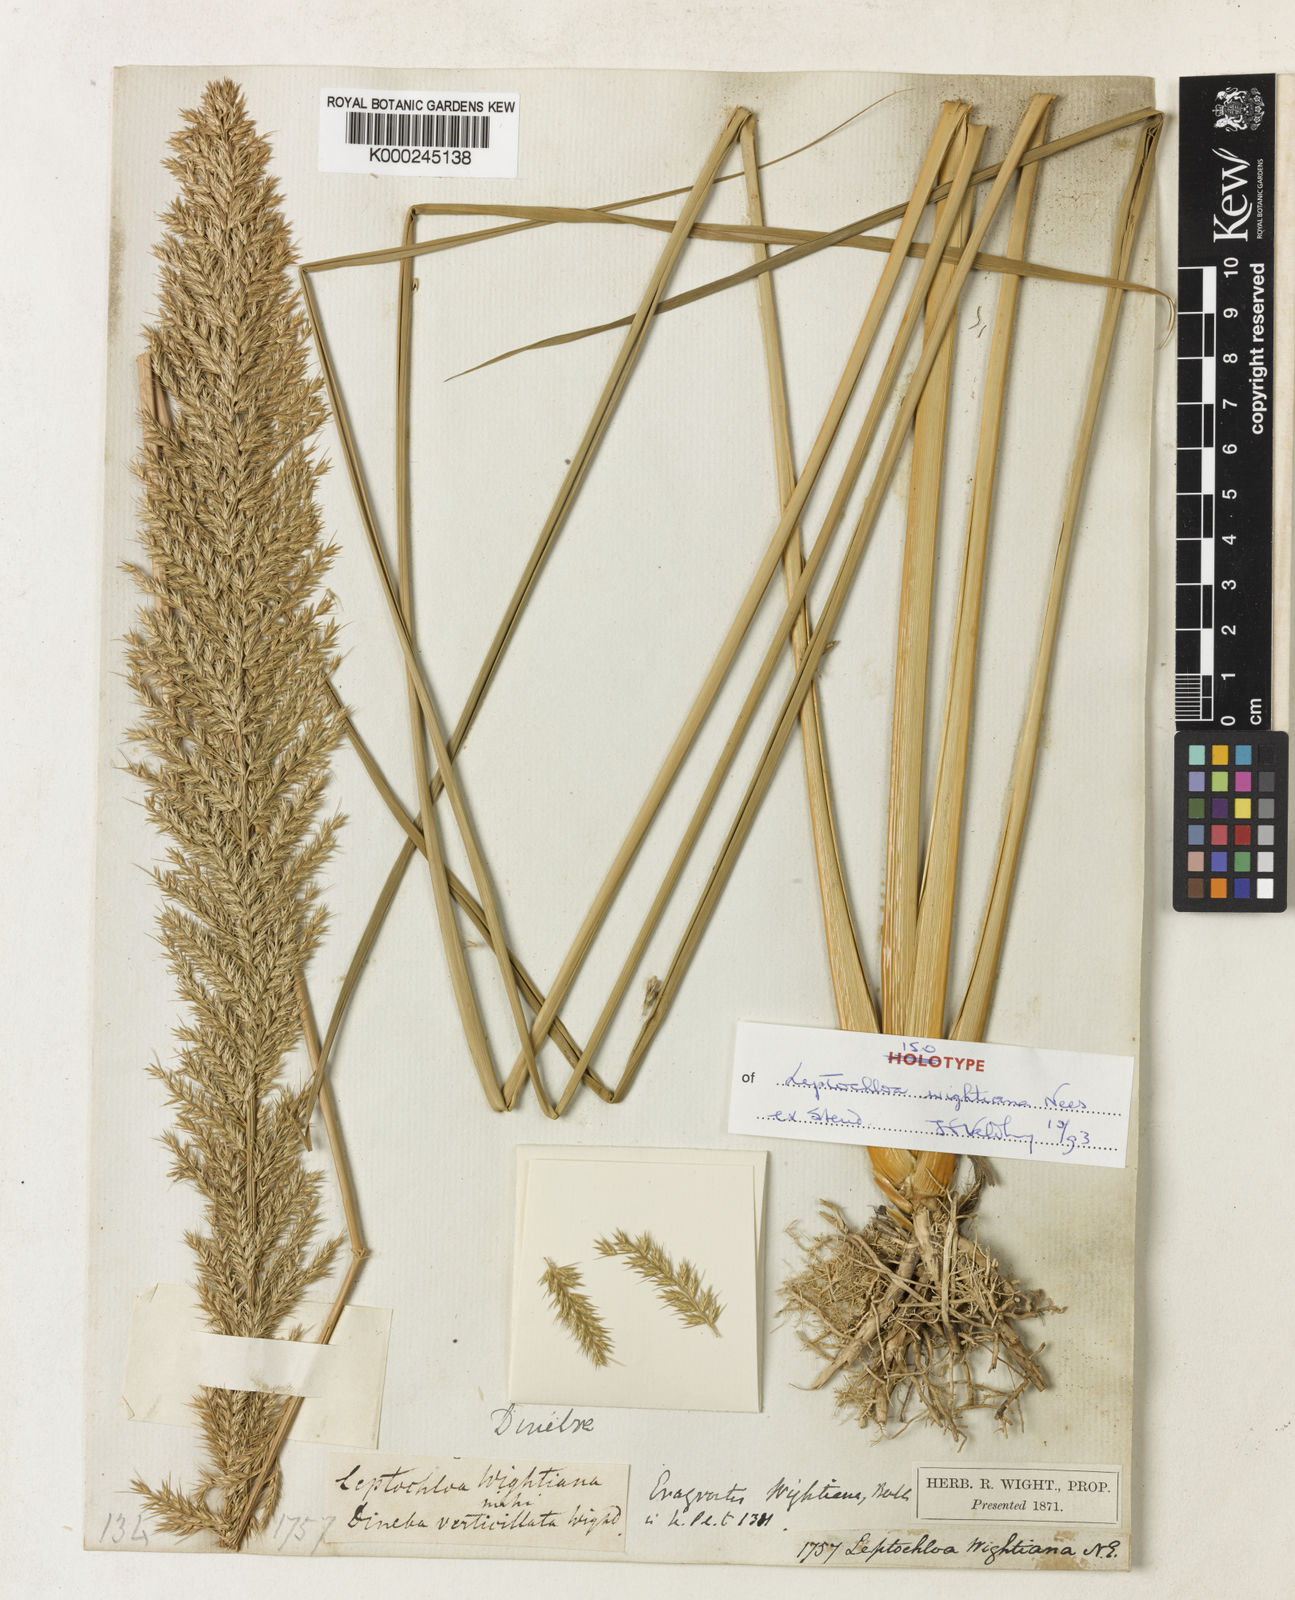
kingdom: Plantae
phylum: Tracheophyta
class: Liliopsida
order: Poales
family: Poaceae
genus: Myriostachya
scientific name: Myriostachya wightiana
